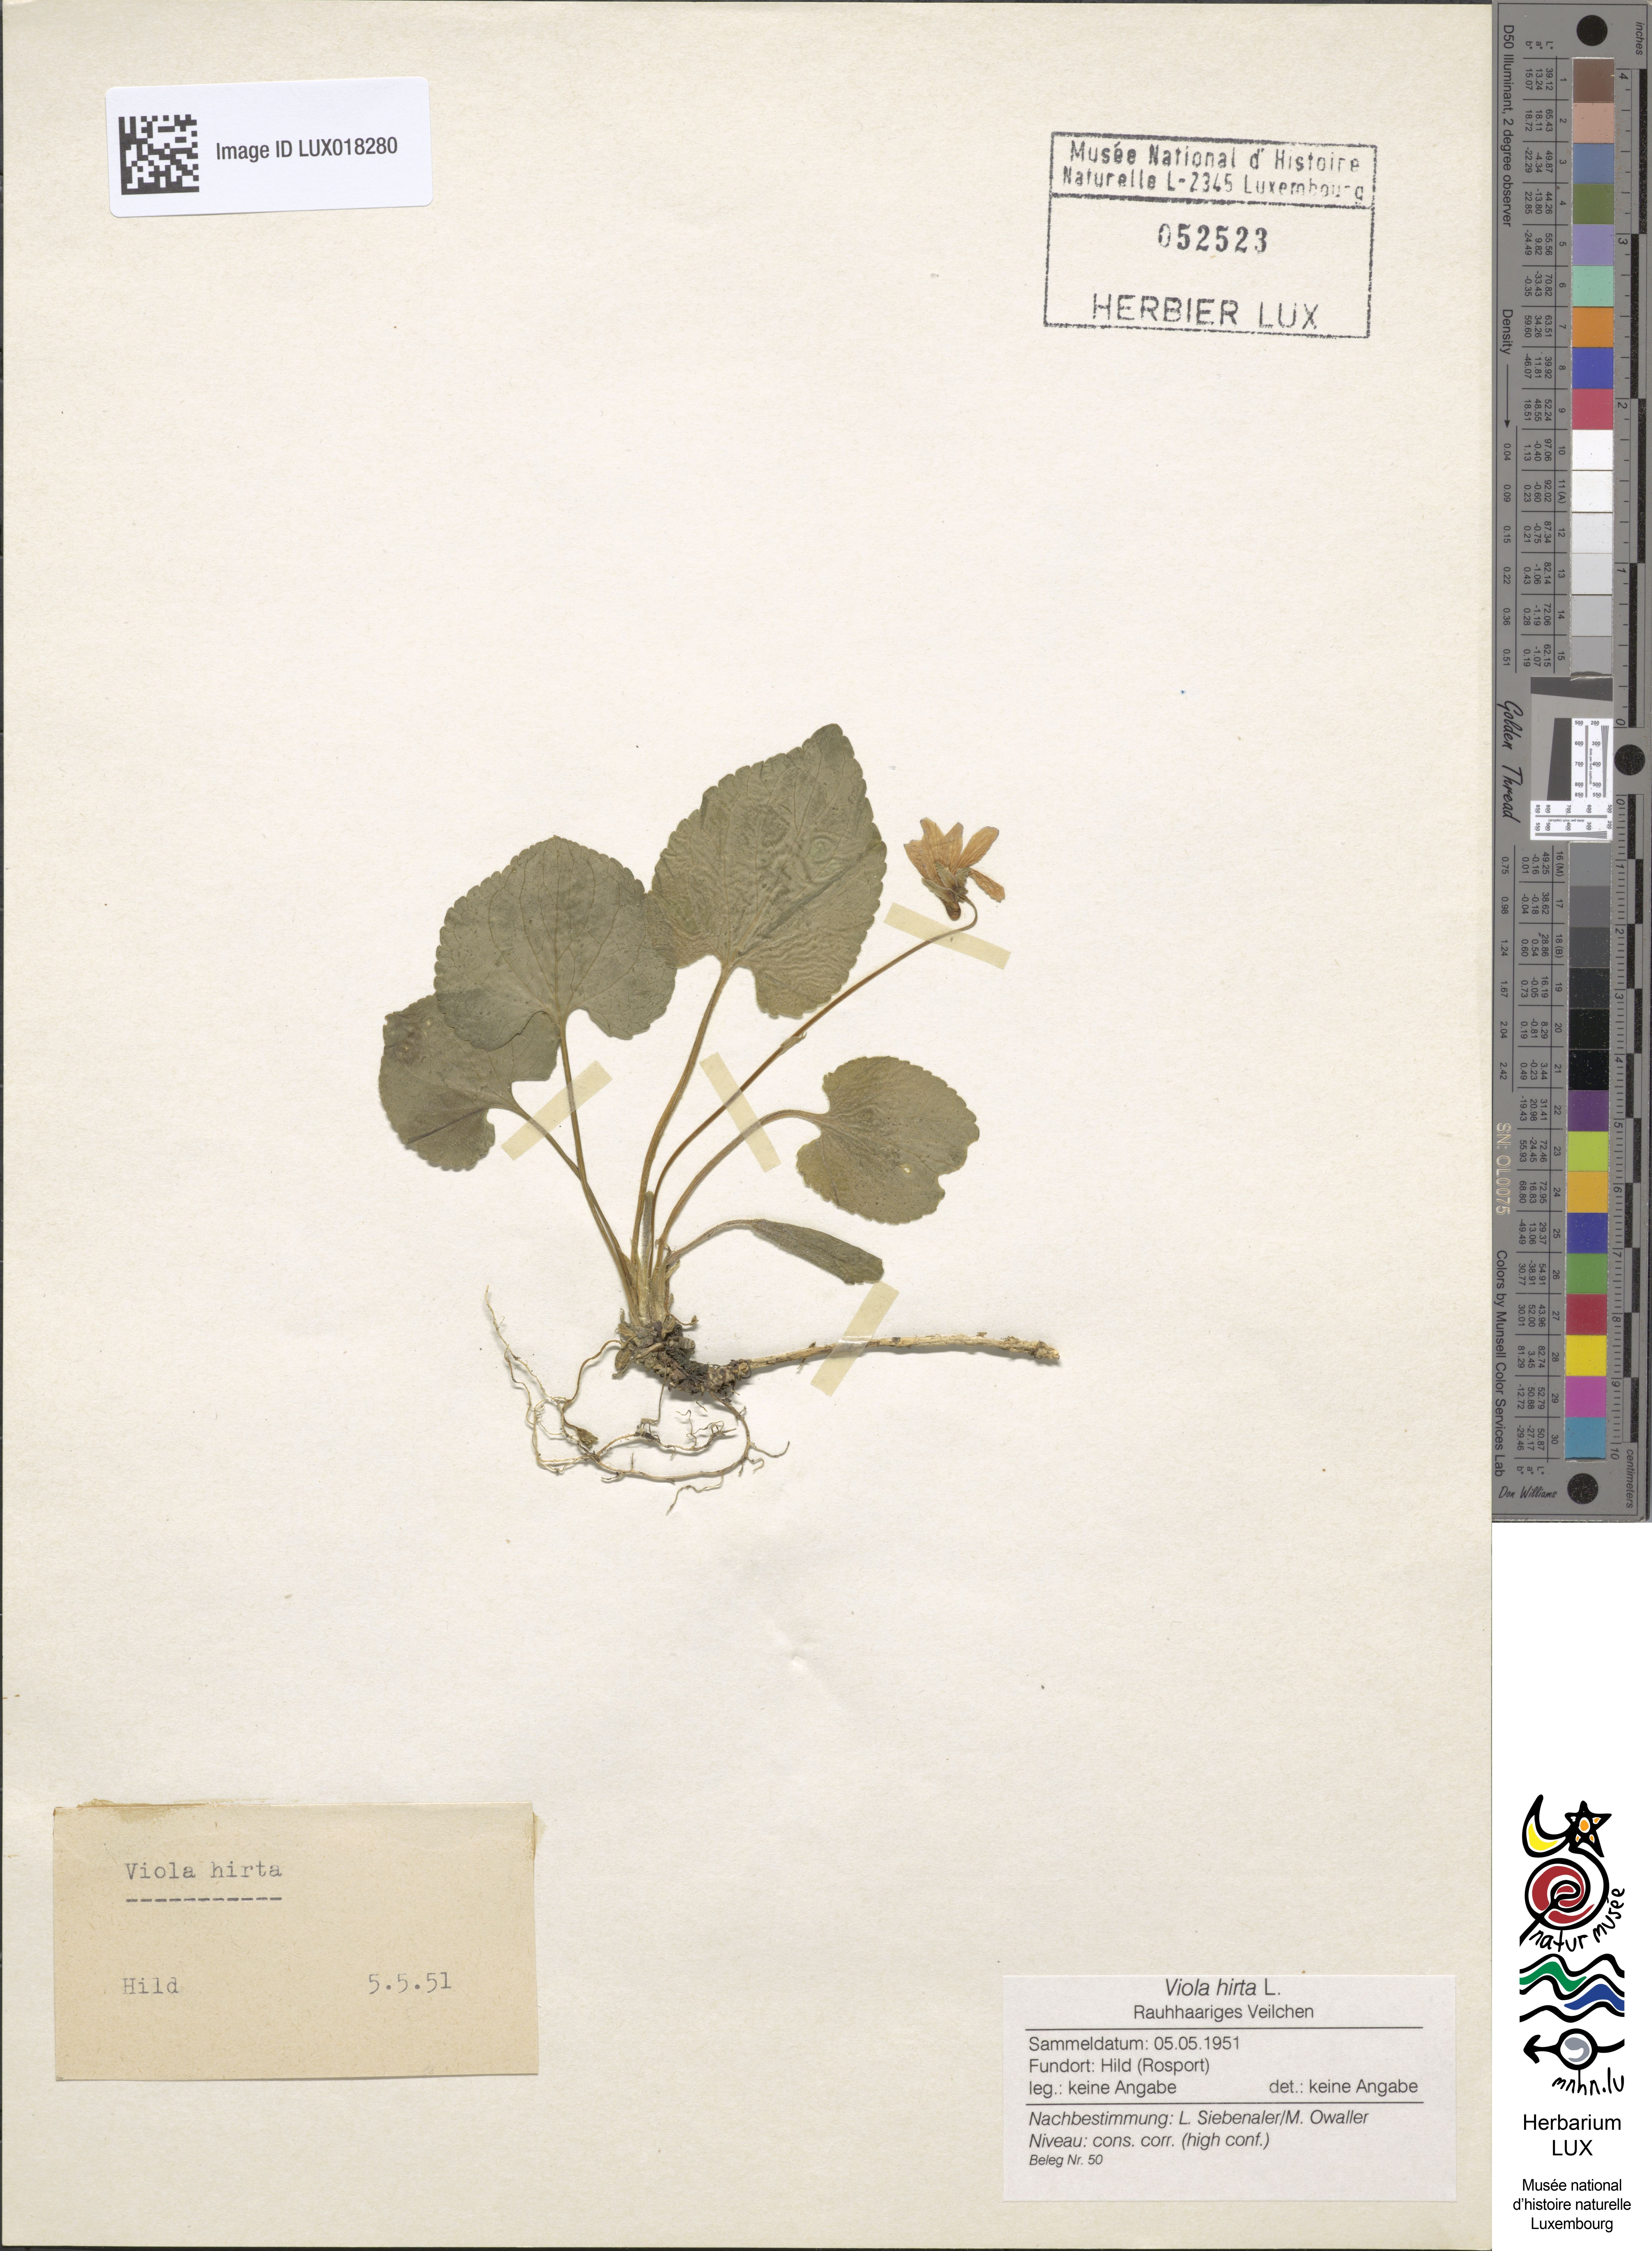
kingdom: Plantae
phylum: Tracheophyta
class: Magnoliopsida
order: Malpighiales
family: Violaceae
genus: Viola
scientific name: Viola hirta
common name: Hairy violet
